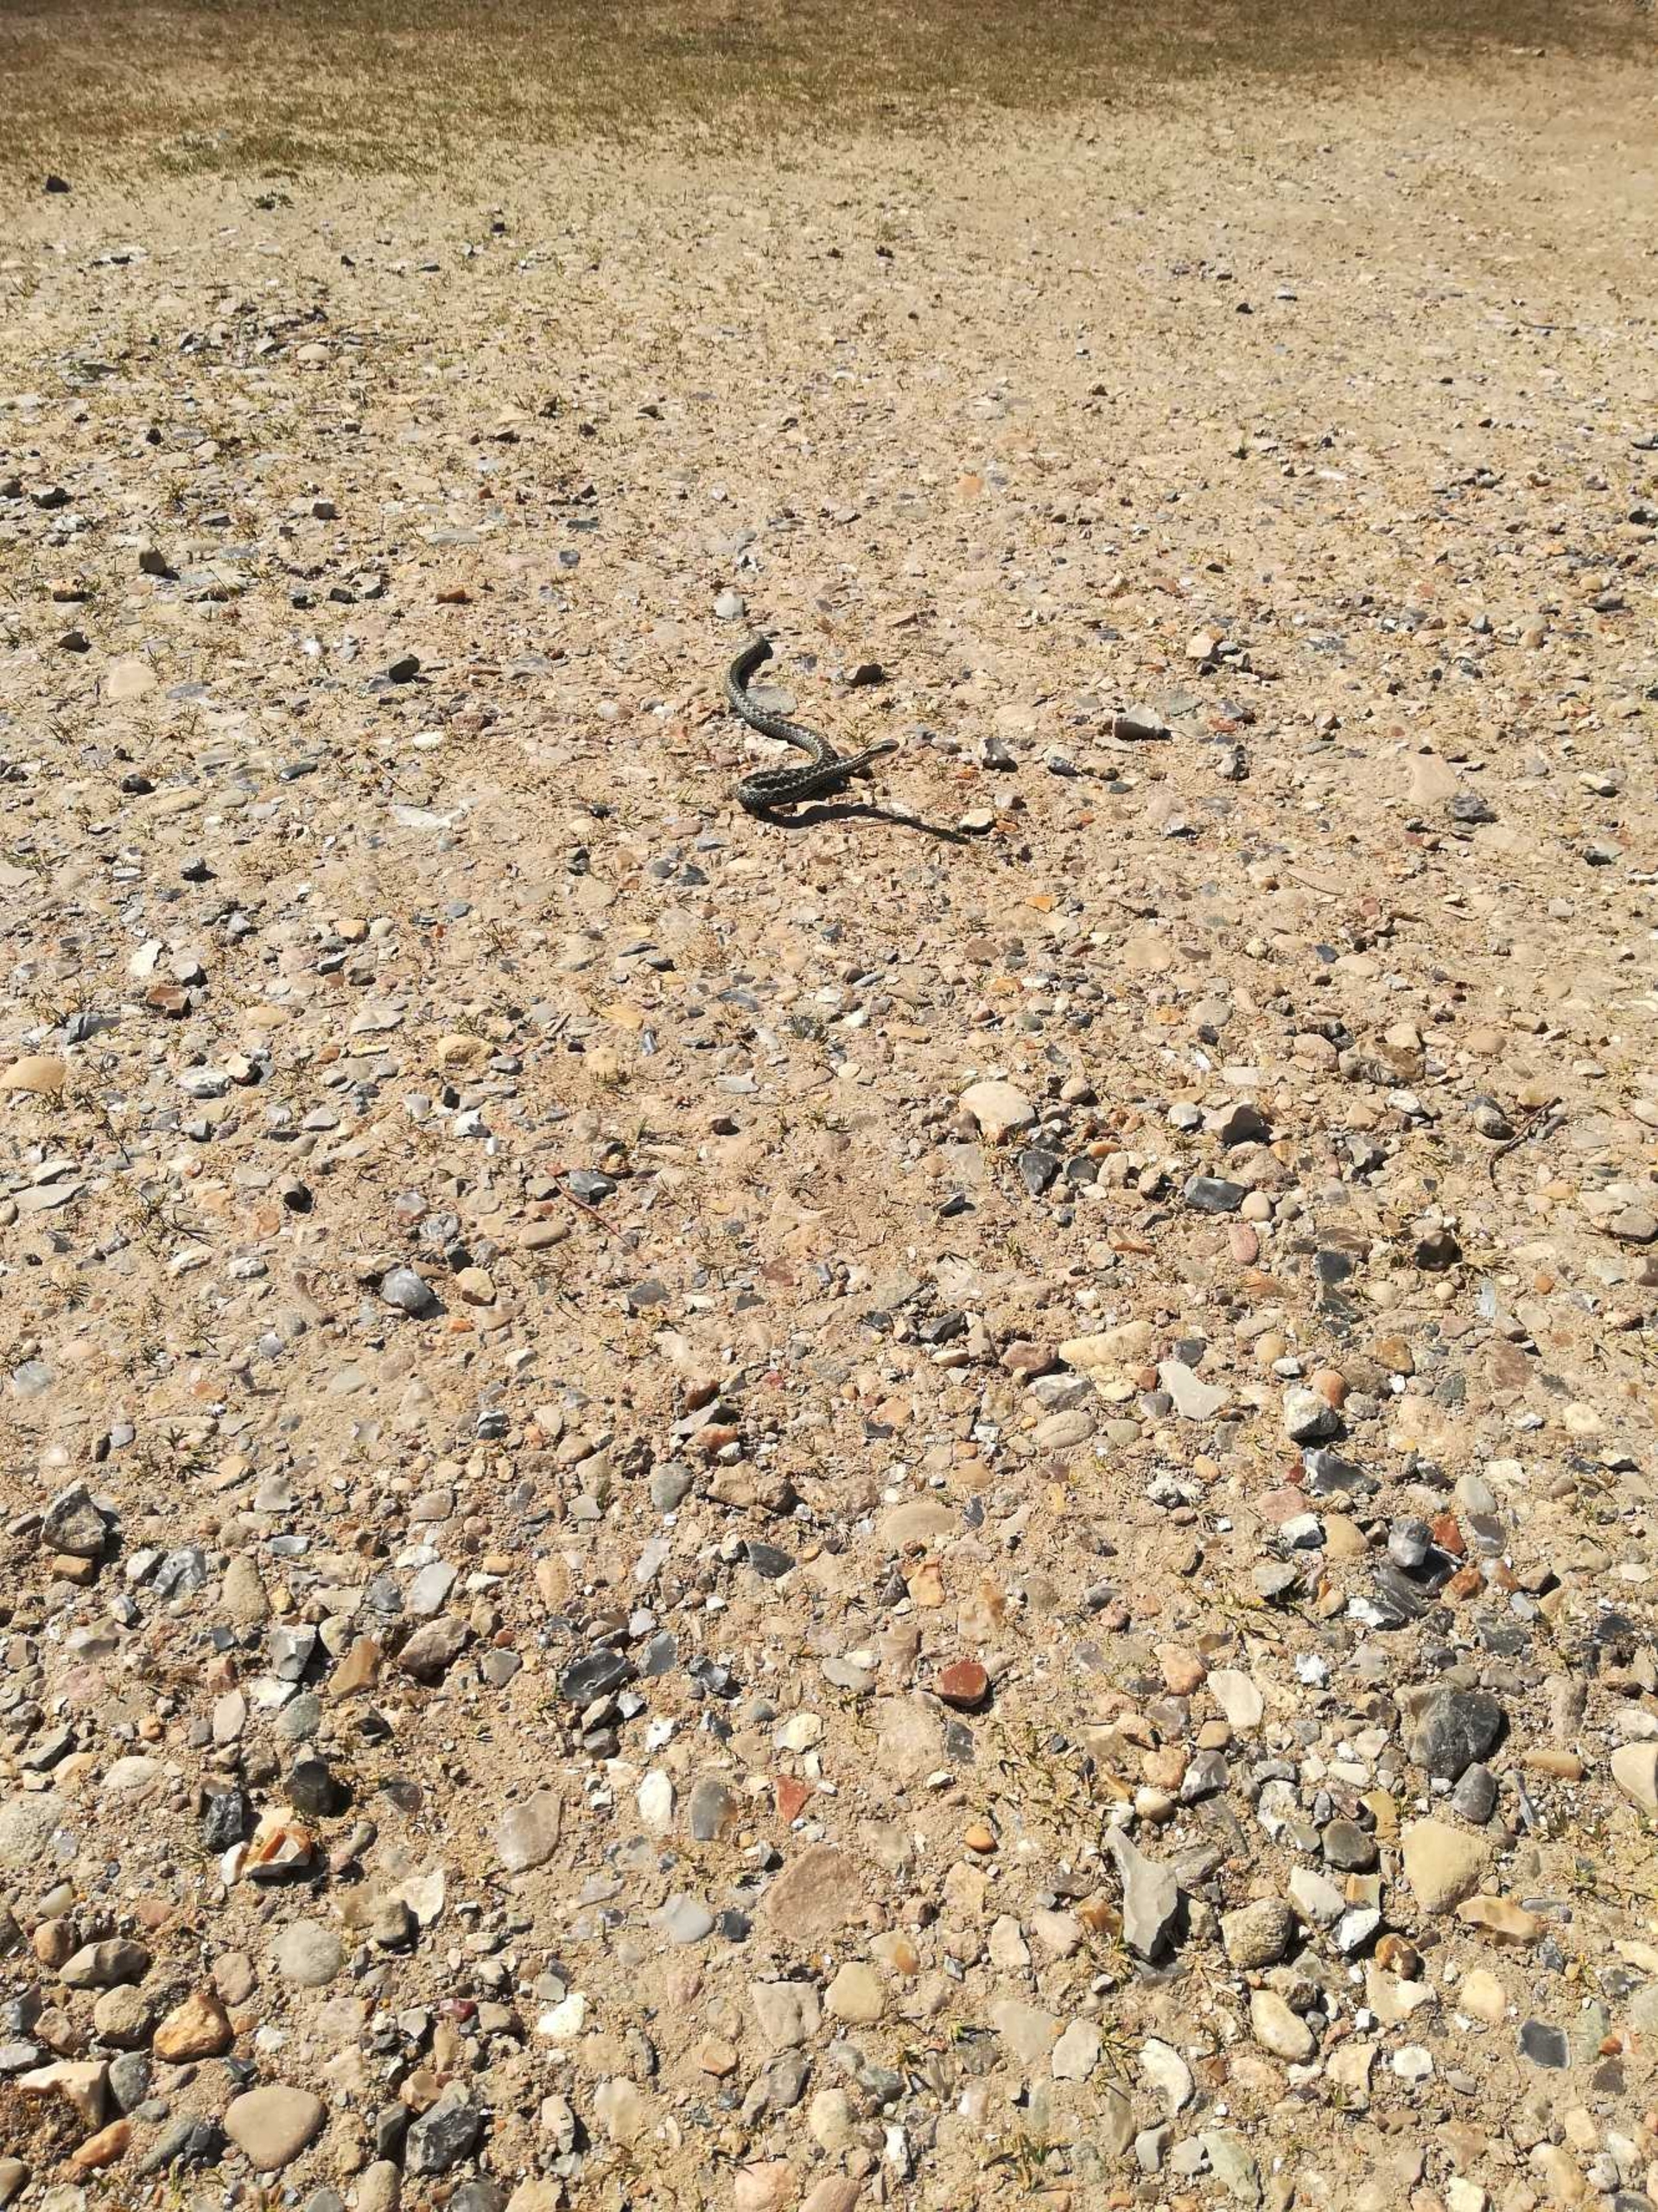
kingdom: Animalia
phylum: Chordata
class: Squamata
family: Viperidae
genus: Vipera
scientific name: Vipera berus
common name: Hugorm
